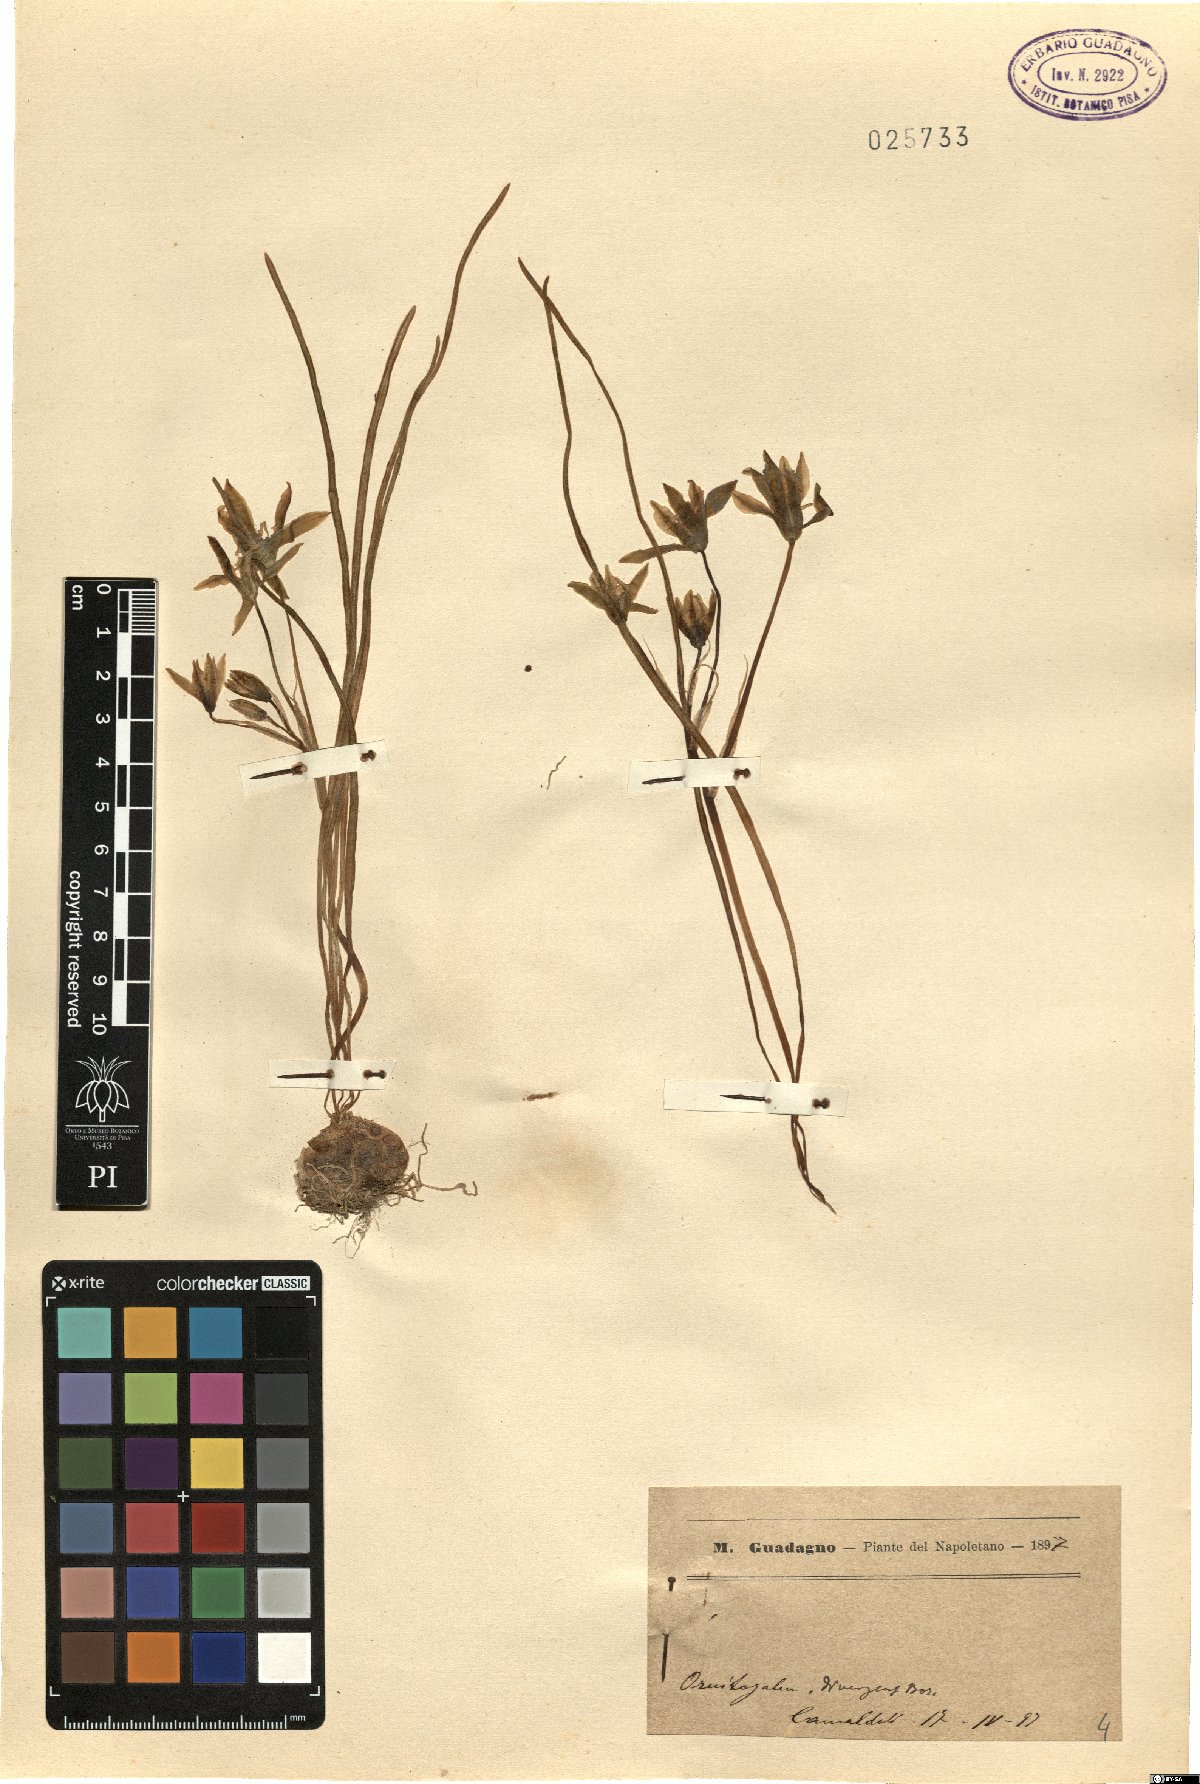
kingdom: Plantae
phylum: Tracheophyta
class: Liliopsida
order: Asparagales
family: Asparagaceae
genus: Ornithogalum
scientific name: Ornithogalum divergens
